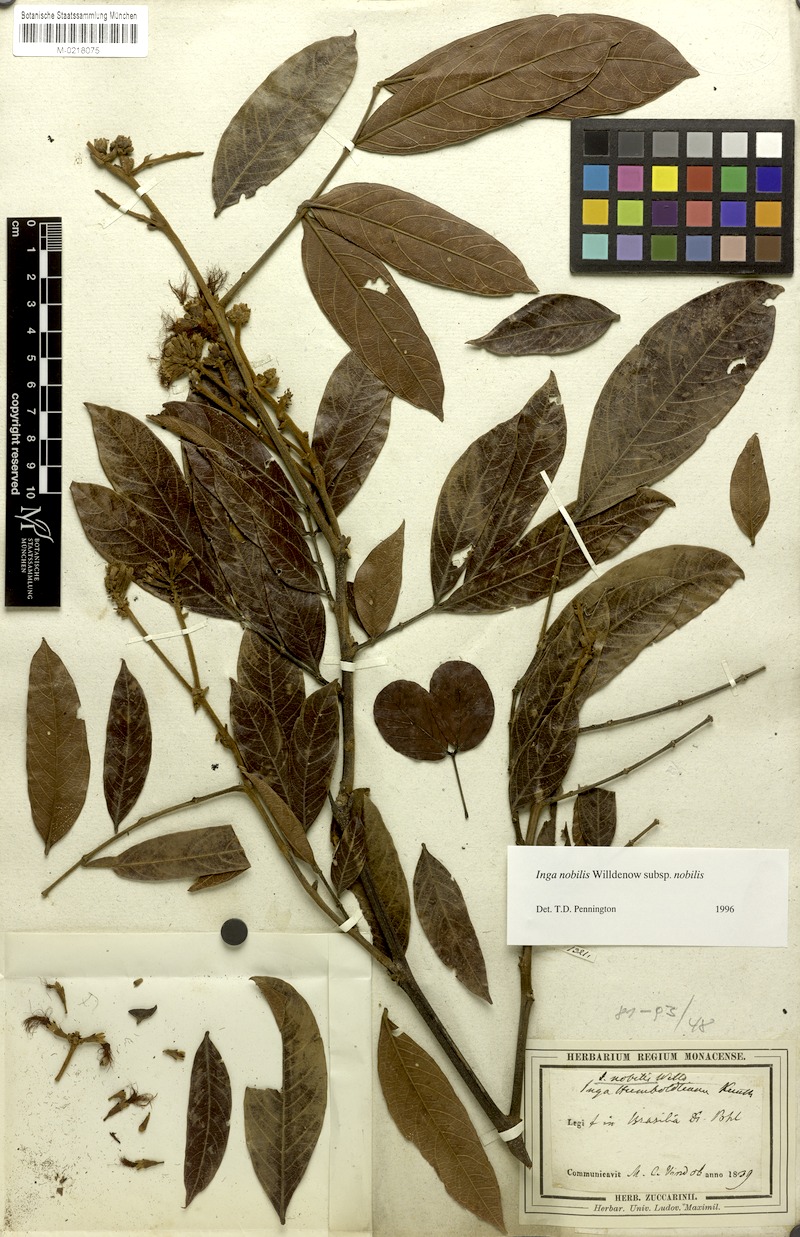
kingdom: Plantae
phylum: Tracheophyta
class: Magnoliopsida
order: Fabales
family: Fabaceae
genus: Inga
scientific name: Inga nobilis
